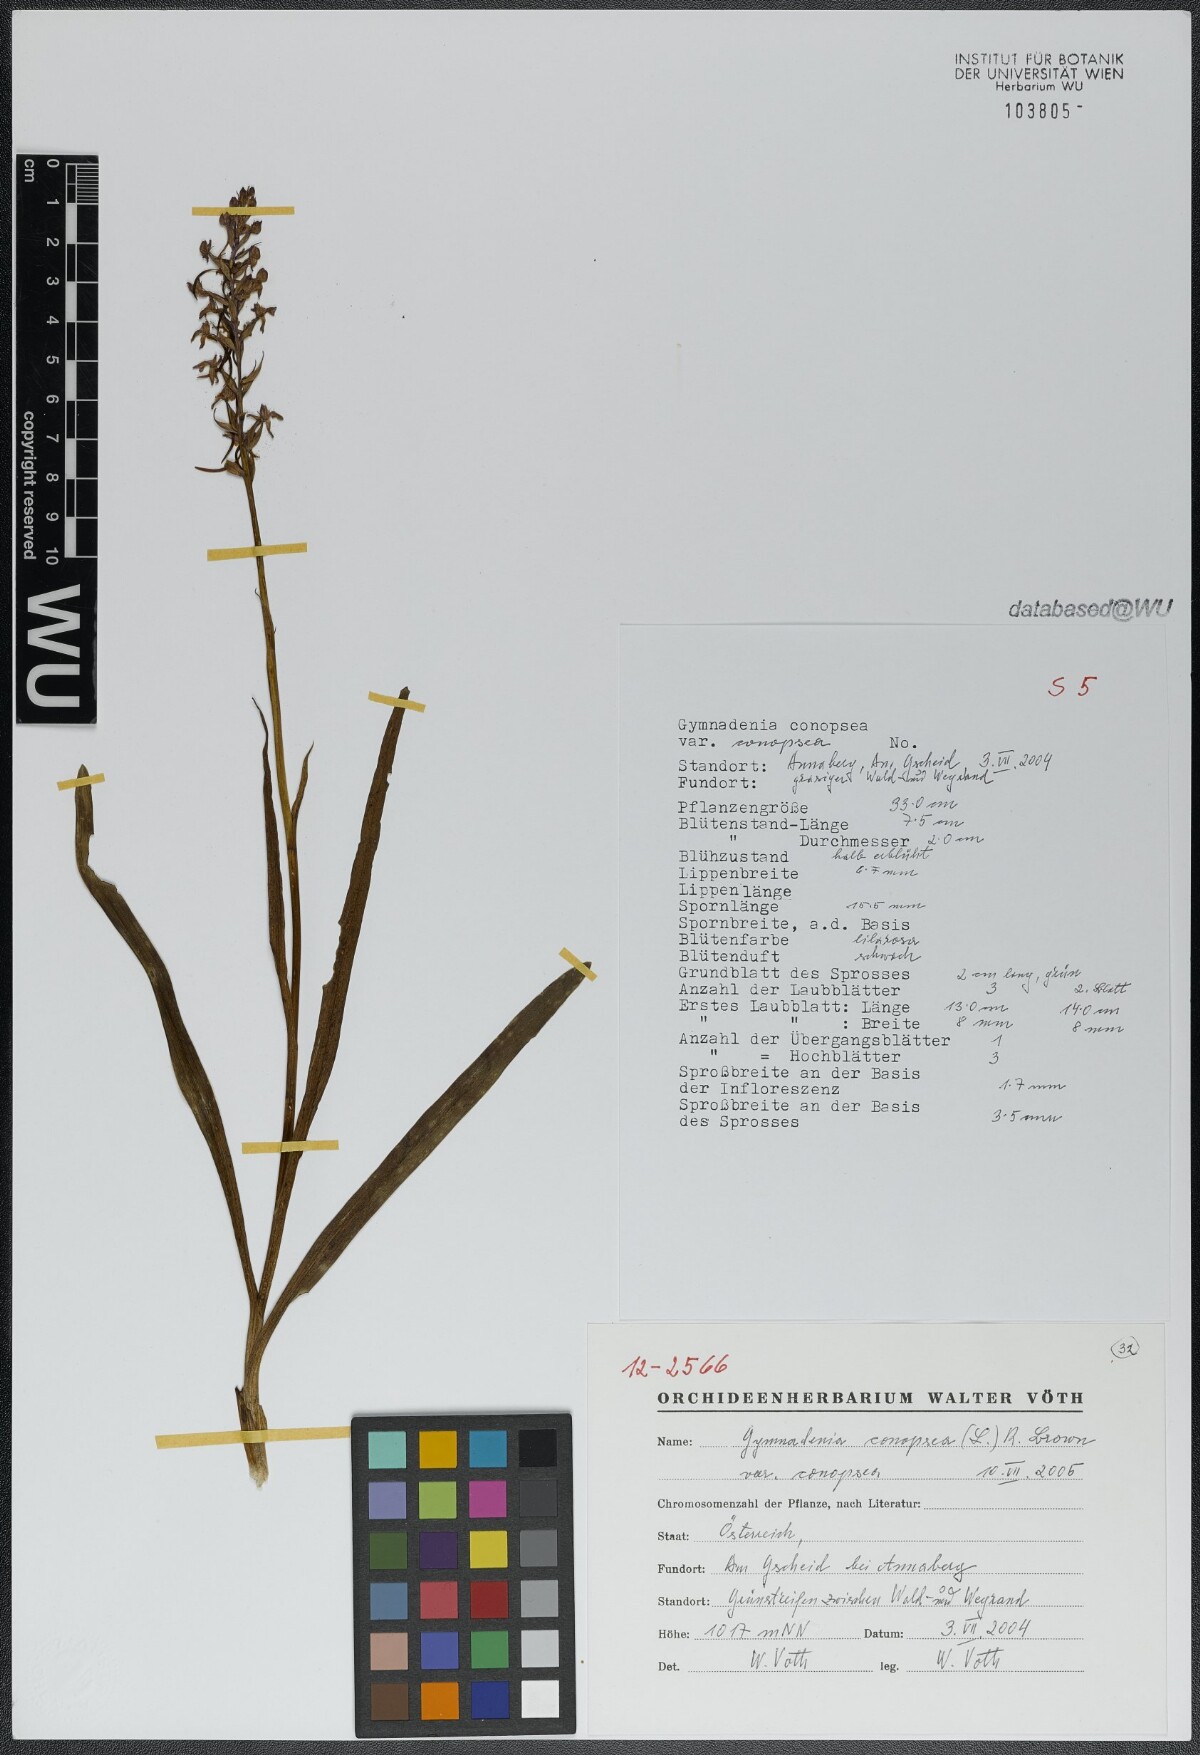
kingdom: Plantae
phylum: Tracheophyta
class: Liliopsida
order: Asparagales
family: Orchidaceae
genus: Gymnadenia
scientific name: Gymnadenia conopsea
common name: Fragrant orchid
